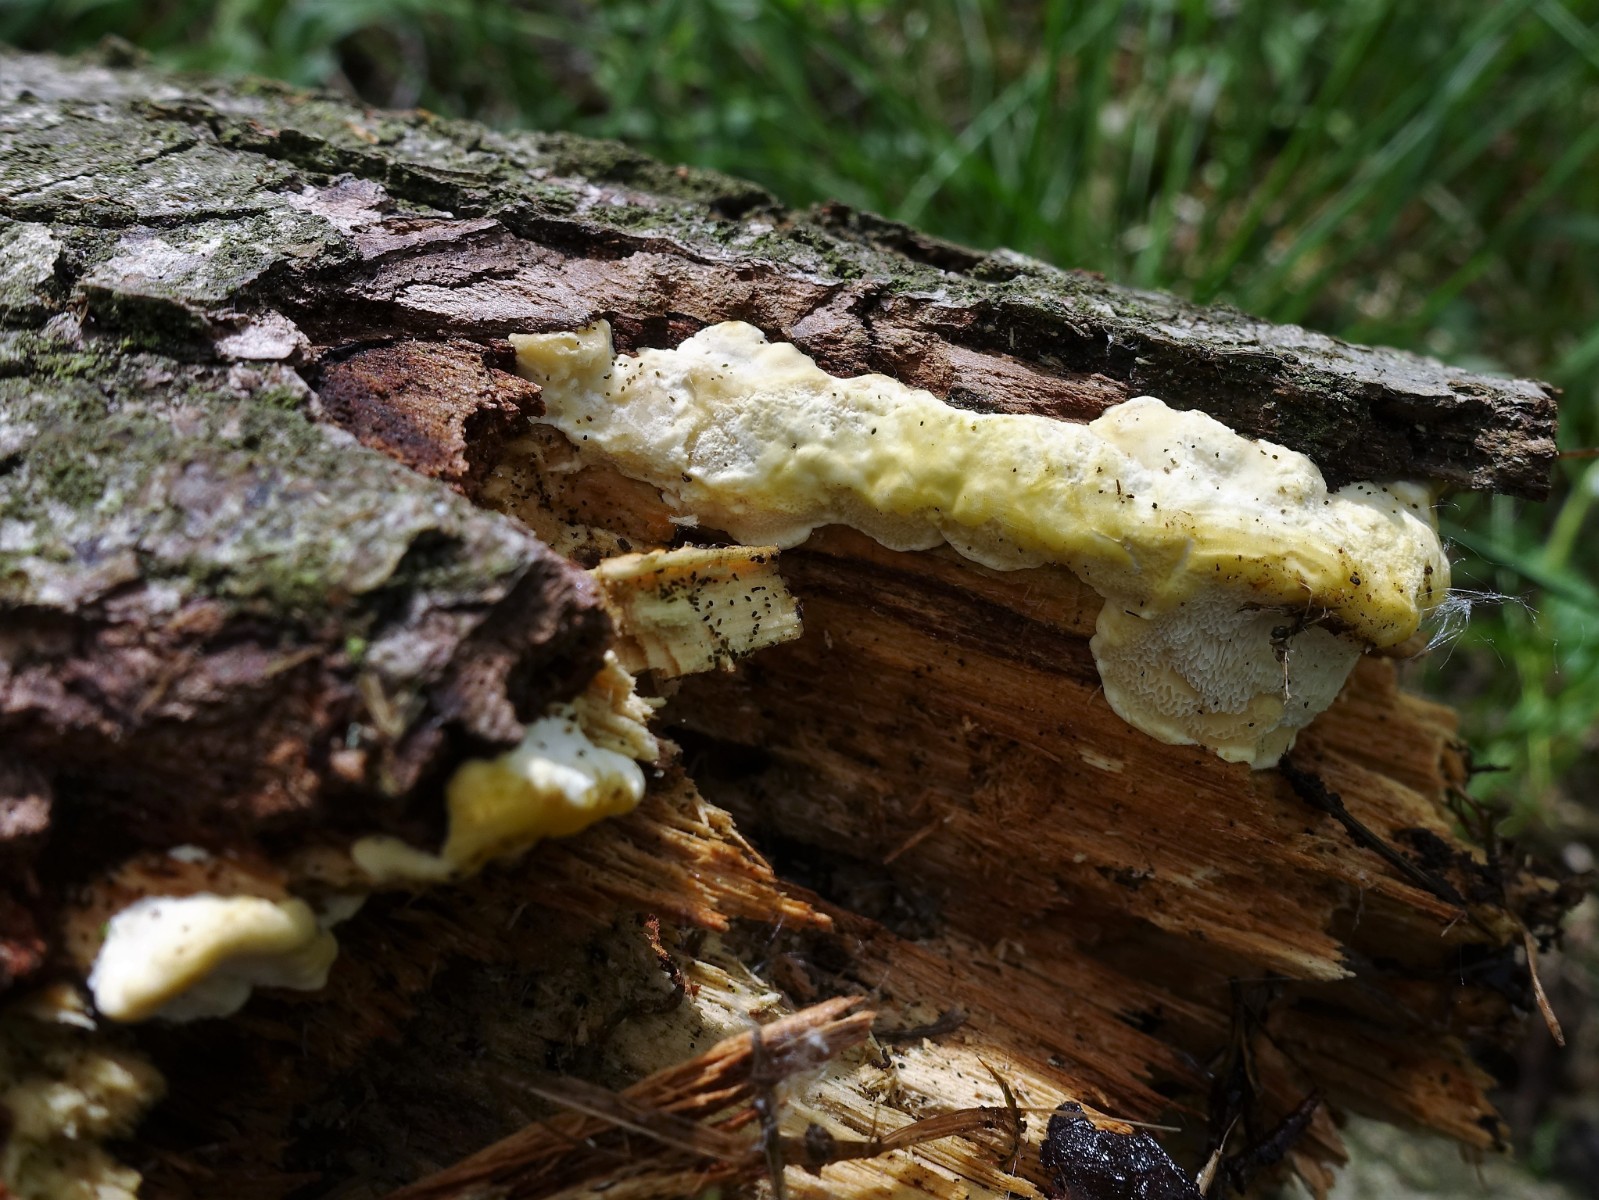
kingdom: Fungi
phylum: Basidiomycota
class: Agaricomycetes
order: Polyporales
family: Steccherinaceae
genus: Antrodiella
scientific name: Antrodiella serpula
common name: gulrandet elastikporesvamp
